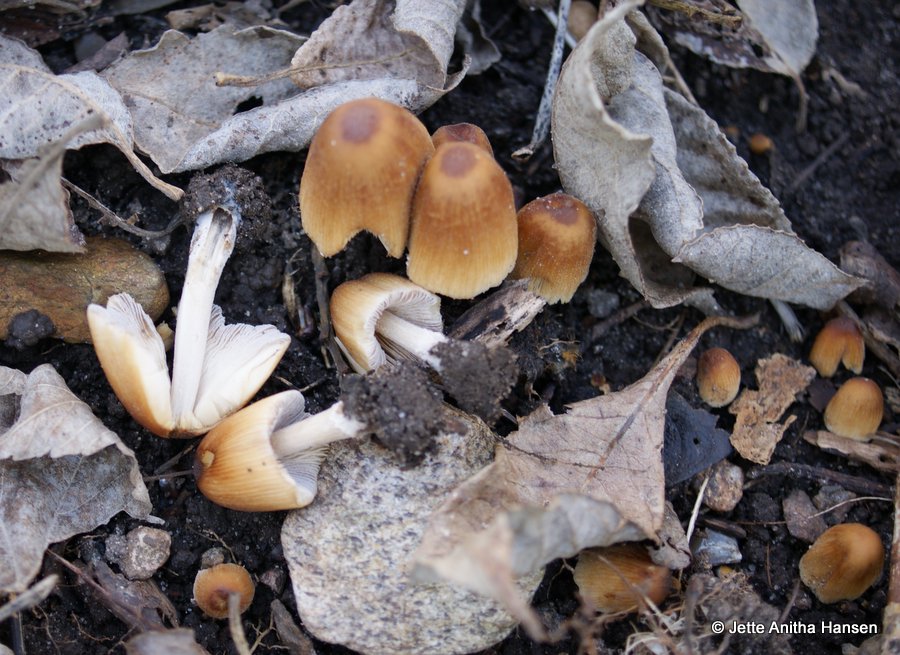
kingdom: Fungi
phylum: Basidiomycota
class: Agaricomycetes
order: Agaricales
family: Psathyrellaceae
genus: Coprinellus
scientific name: Coprinellus micaceus
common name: glimmer-blækhat
